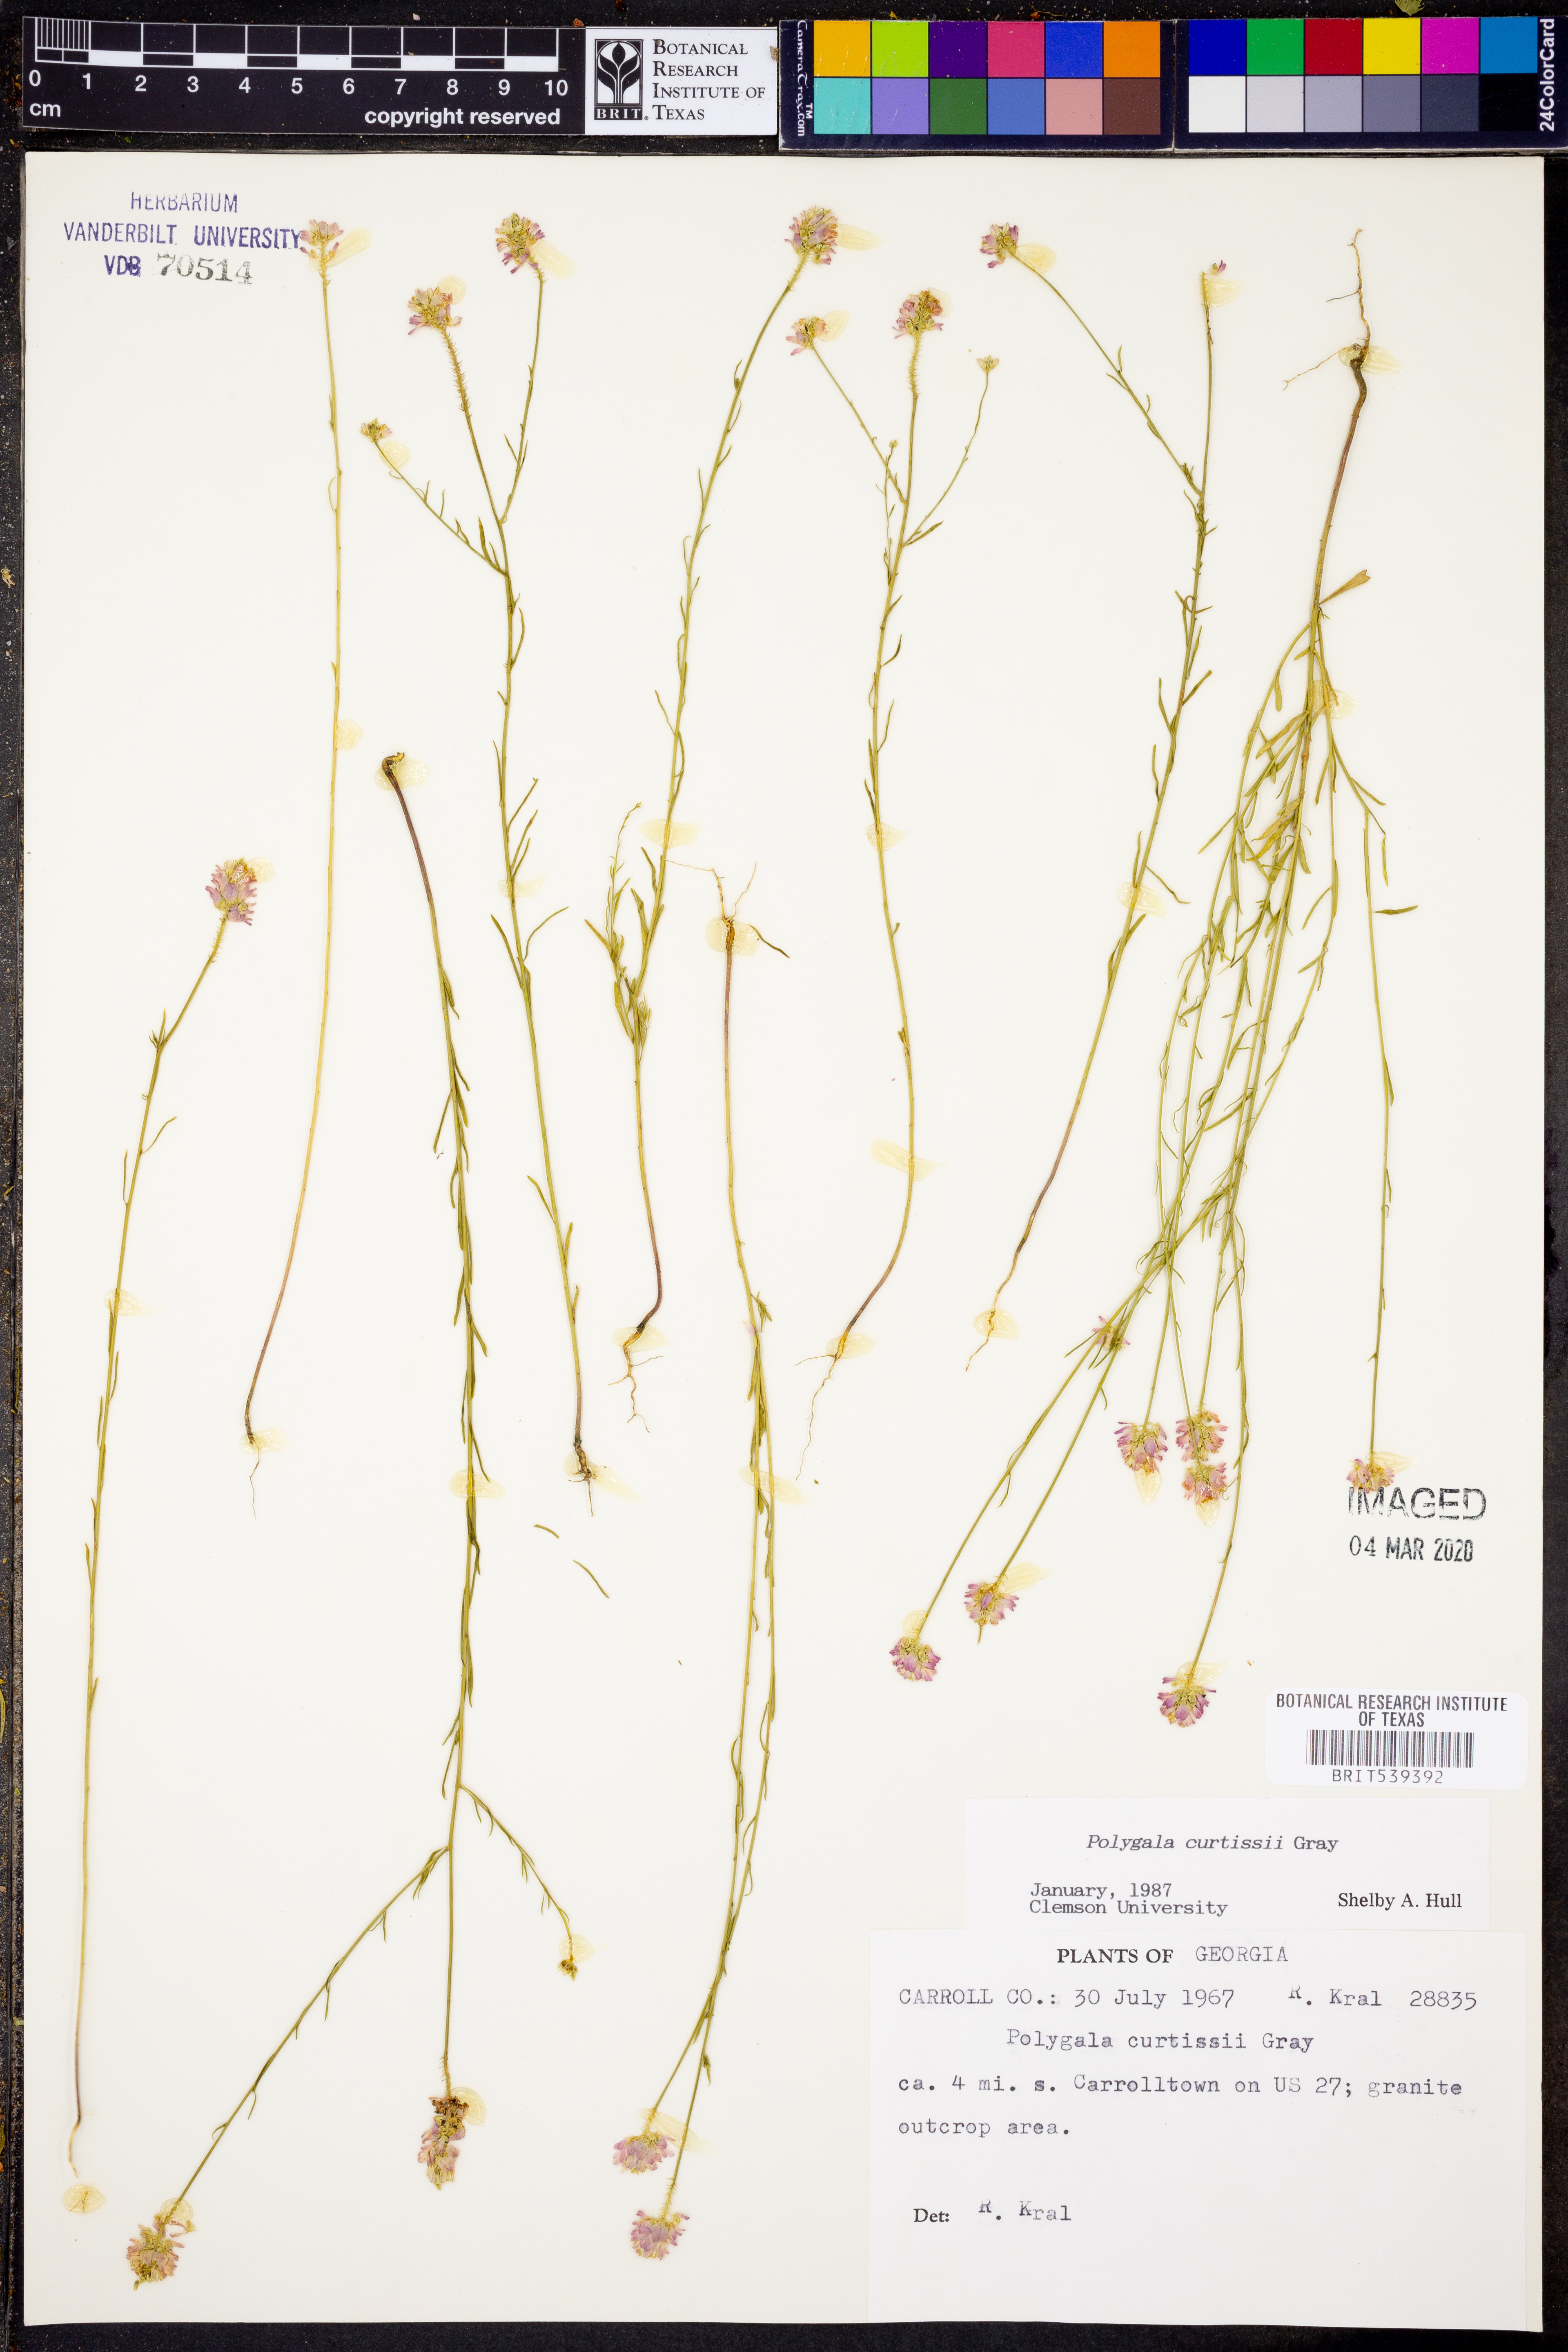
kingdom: Plantae
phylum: Tracheophyta
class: Magnoliopsida
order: Fabales
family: Polygalaceae
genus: Polygala
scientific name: Polygala curtissii
